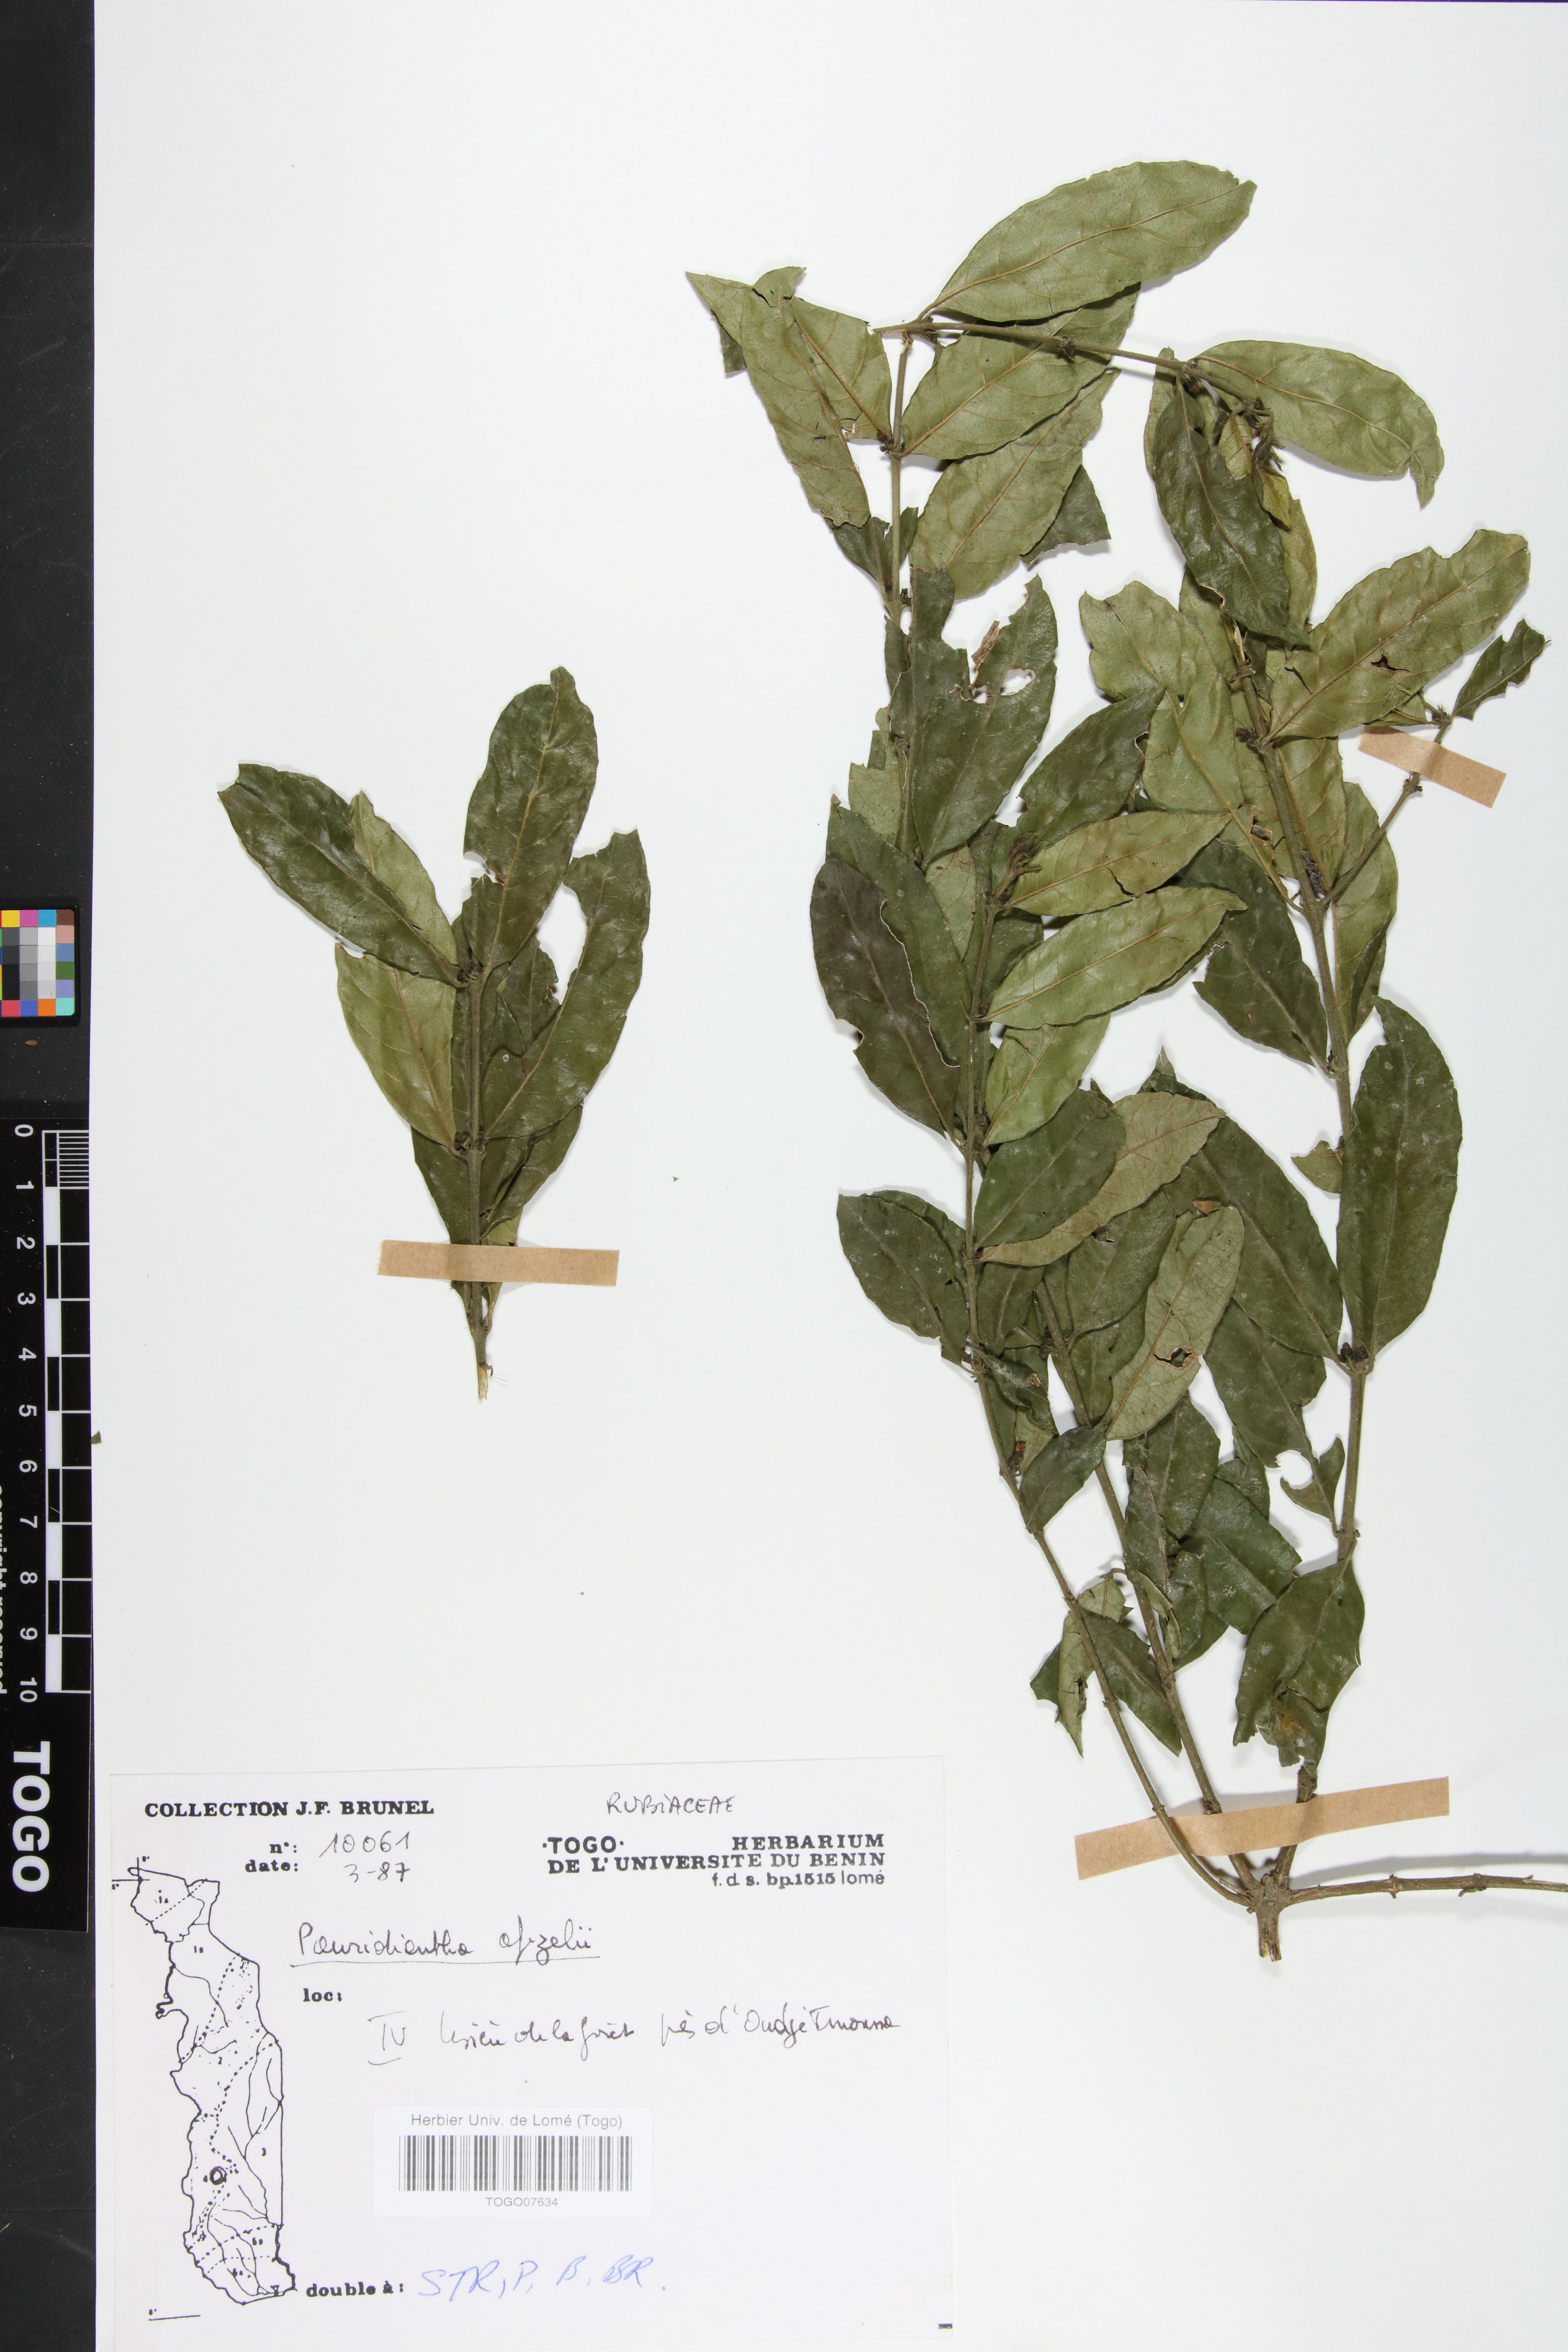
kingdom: Plantae
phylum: Tracheophyta
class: Magnoliopsida
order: Gentianales
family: Rubiaceae
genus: Pauridiantha
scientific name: Pauridiantha afzelii
